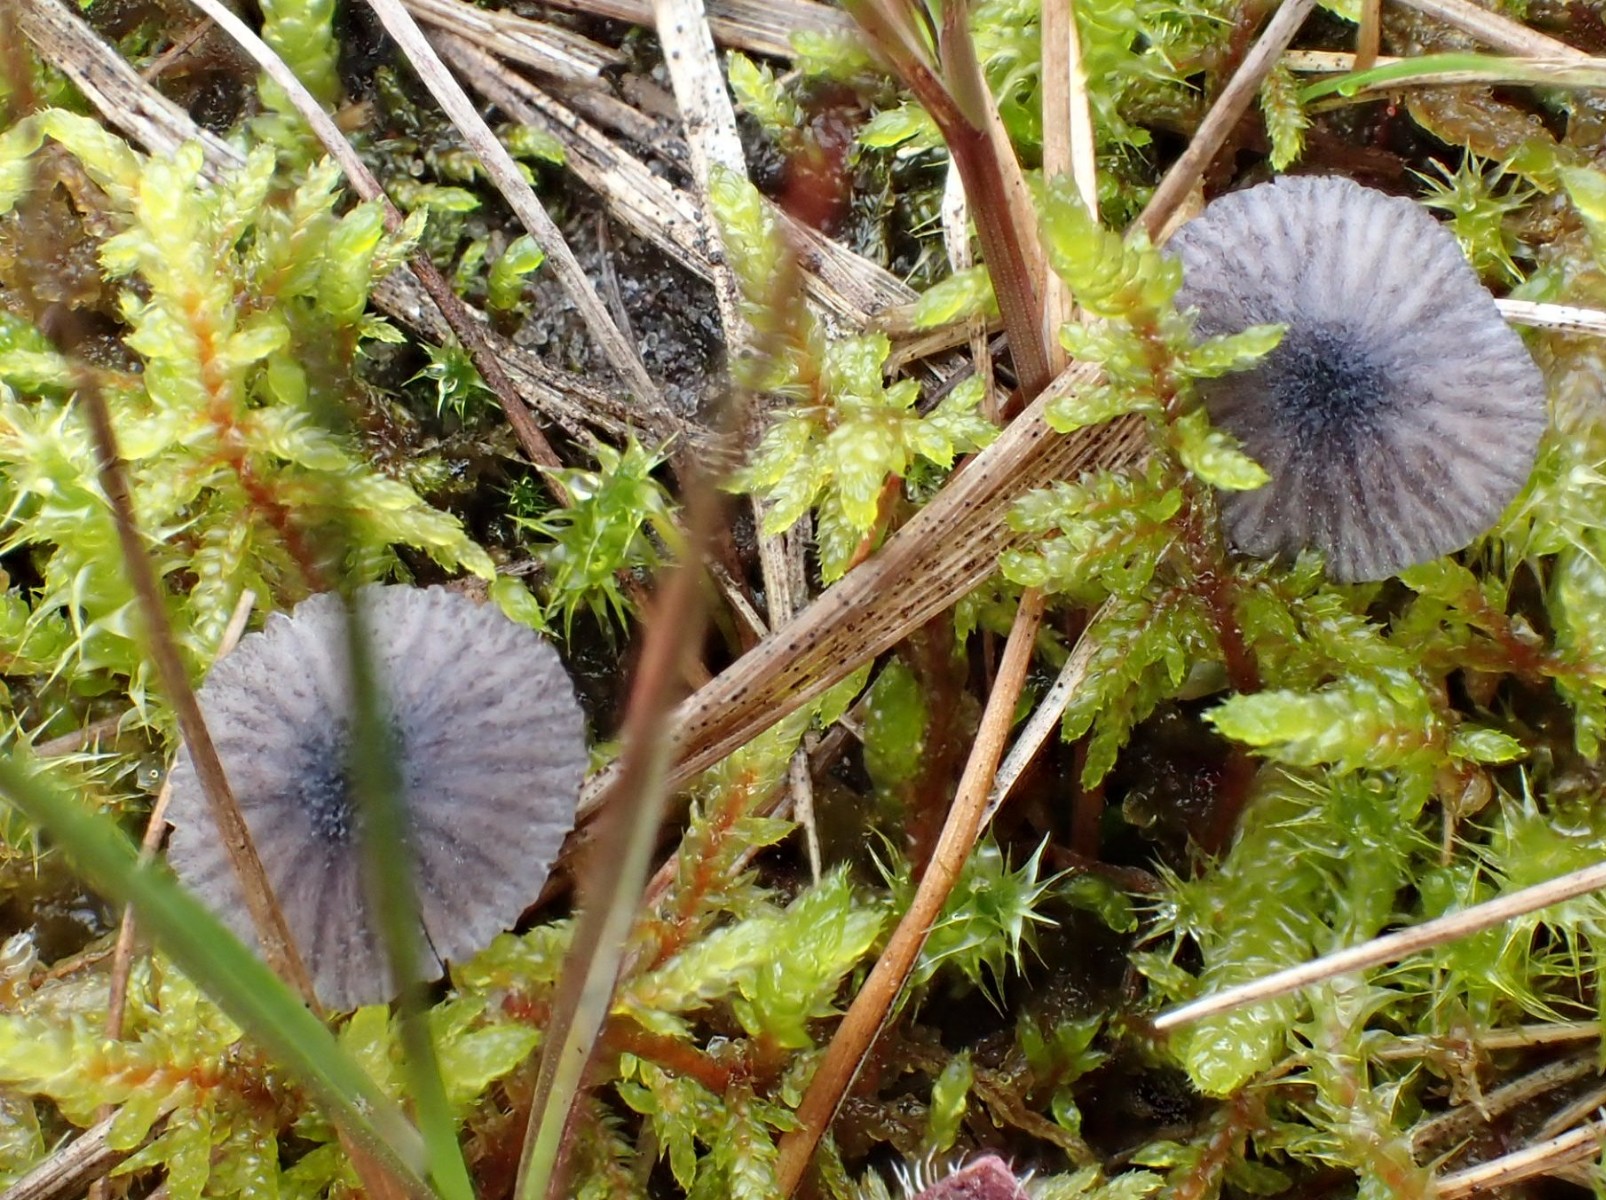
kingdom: Fungi
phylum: Basidiomycota
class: Agaricomycetes
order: Agaricales
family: Entolomataceae
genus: Entoloma
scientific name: Entoloma cyanulum
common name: violblå rødblad
